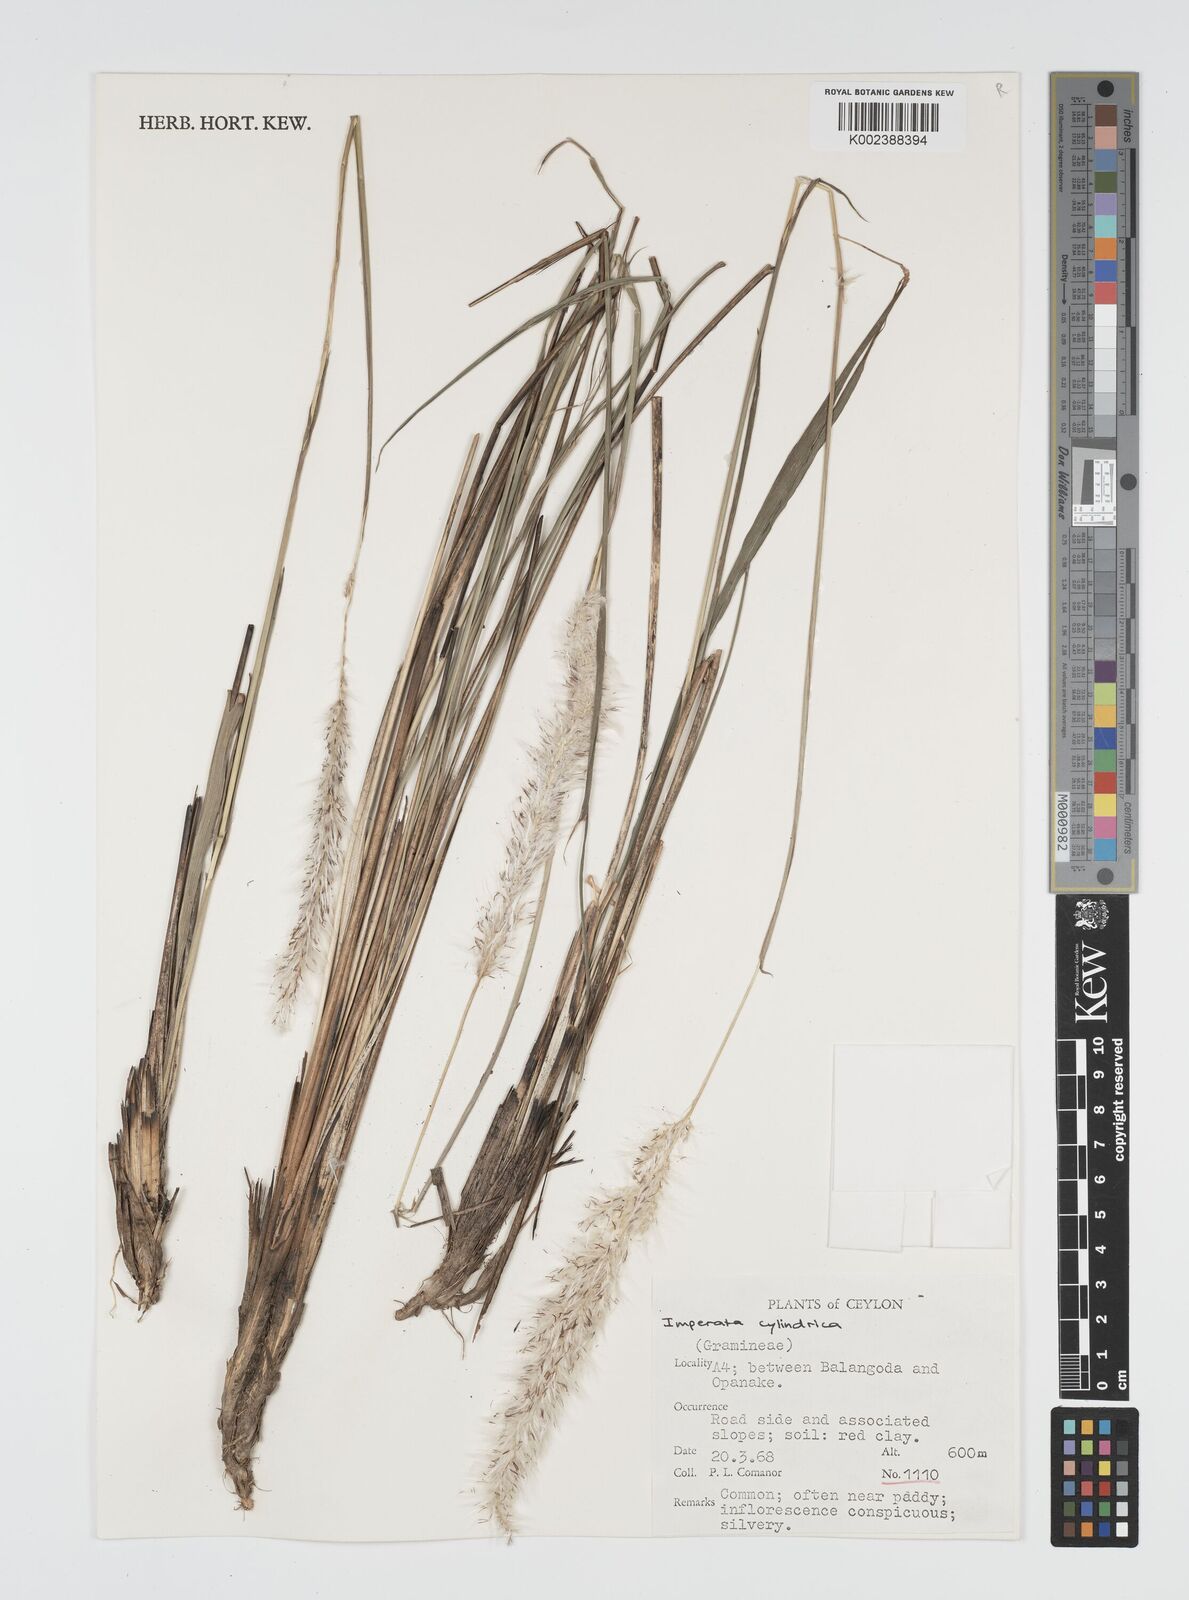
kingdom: Plantae
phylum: Tracheophyta
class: Liliopsida
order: Poales
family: Poaceae
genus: Imperata
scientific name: Imperata cylindrica
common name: Cogongrass
